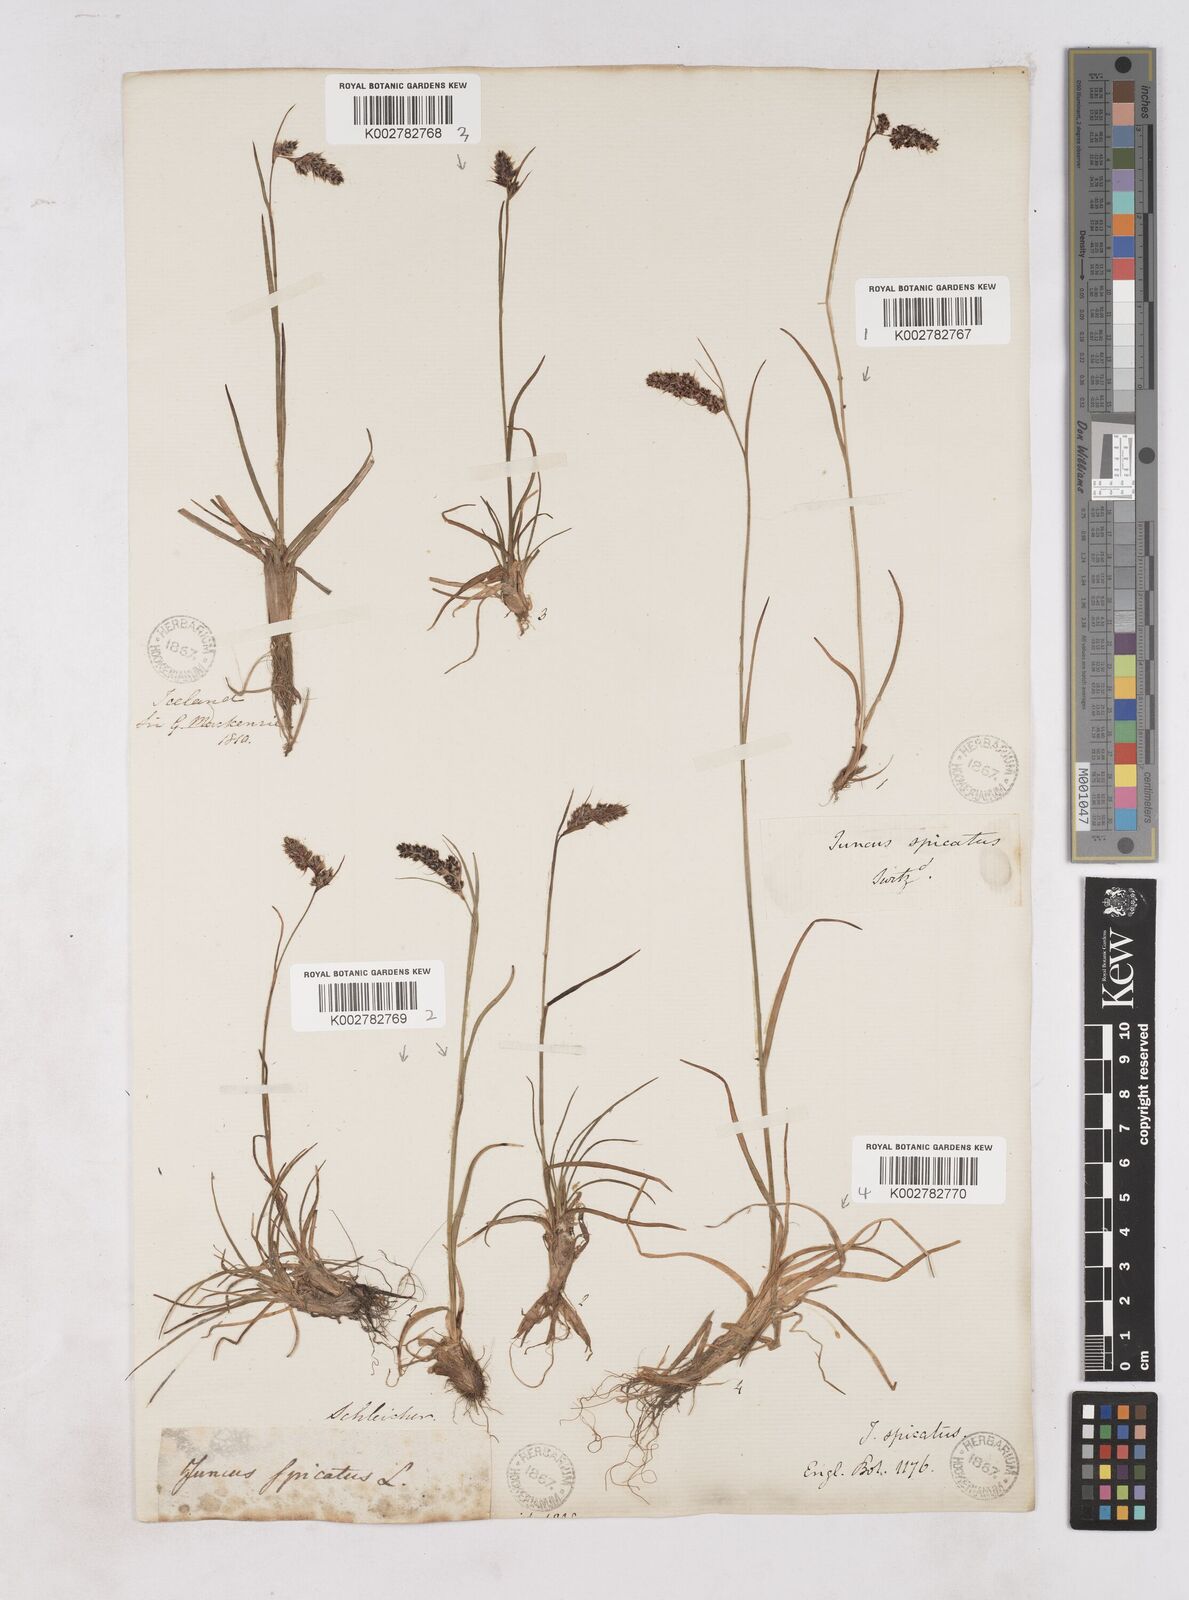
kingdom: Plantae
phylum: Tracheophyta
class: Liliopsida
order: Poales
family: Juncaceae
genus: Luzula
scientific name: Luzula spicata
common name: Spiked wood-rush
